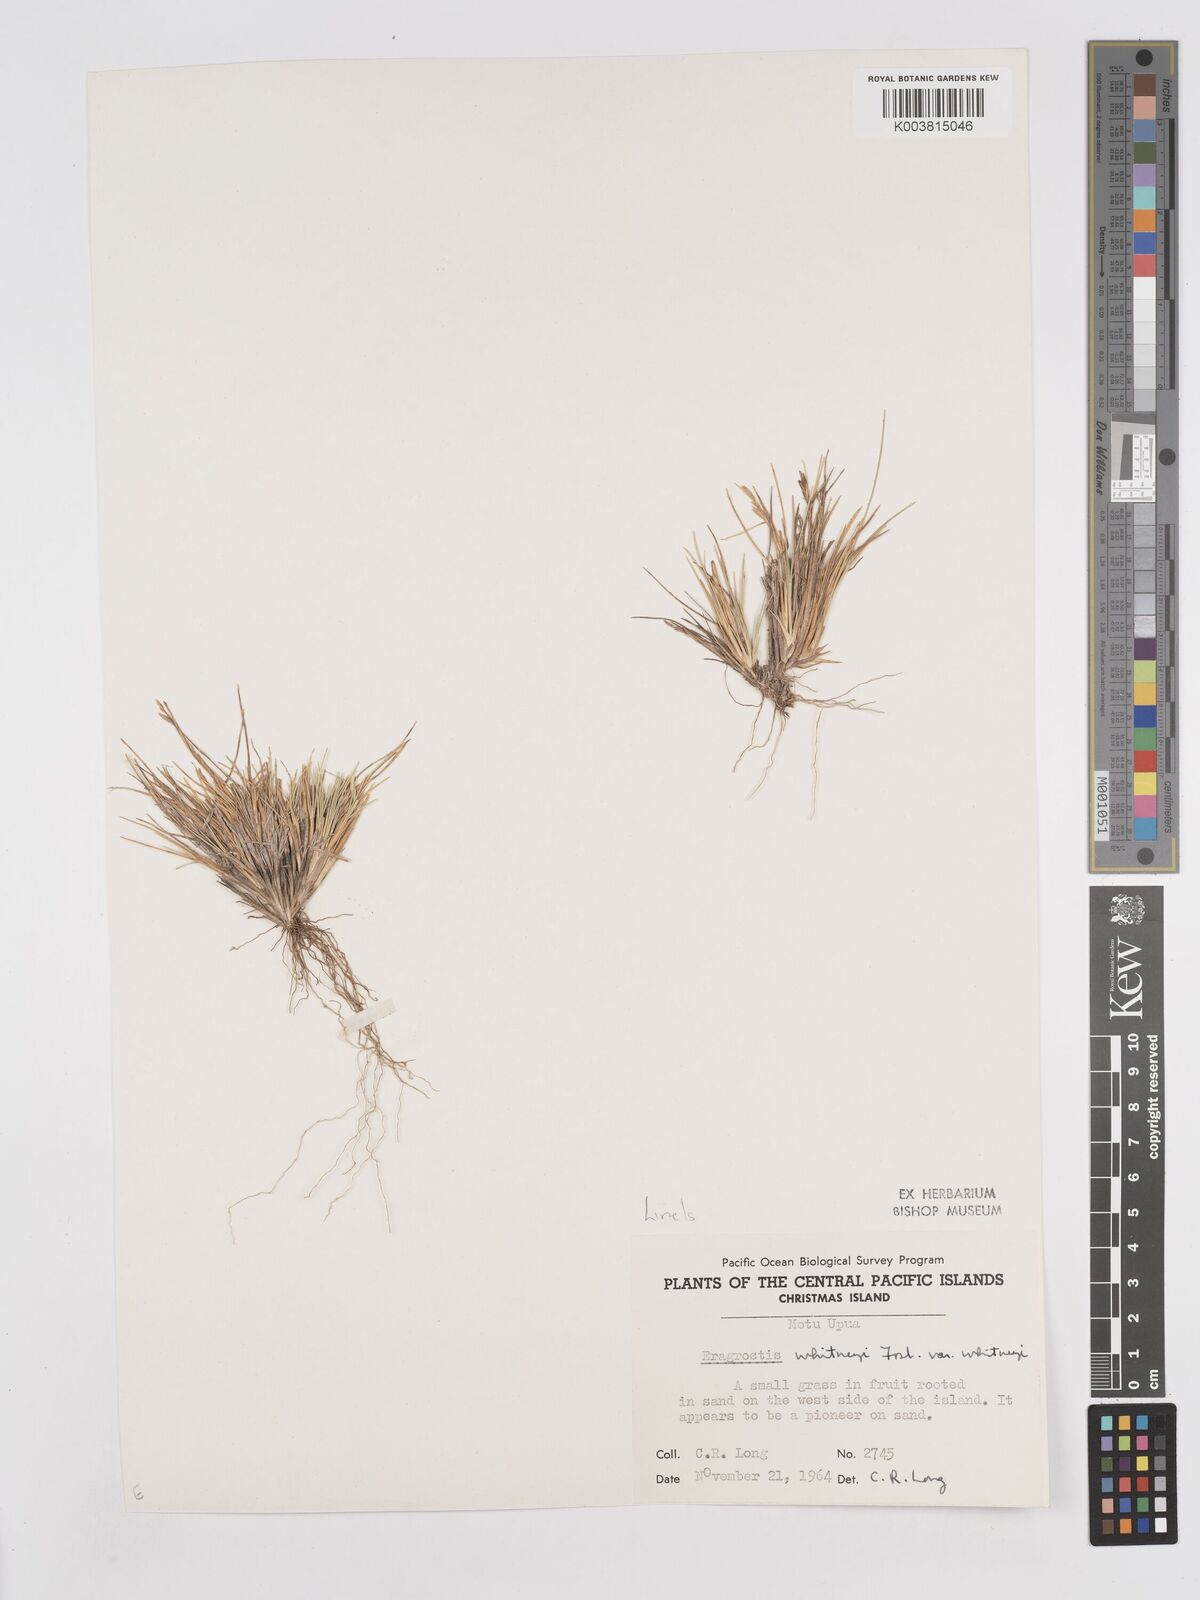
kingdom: Plantae
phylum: Tracheophyta
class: Liliopsida
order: Poales
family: Poaceae
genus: Eragrostis
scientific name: Eragrostis paupera
